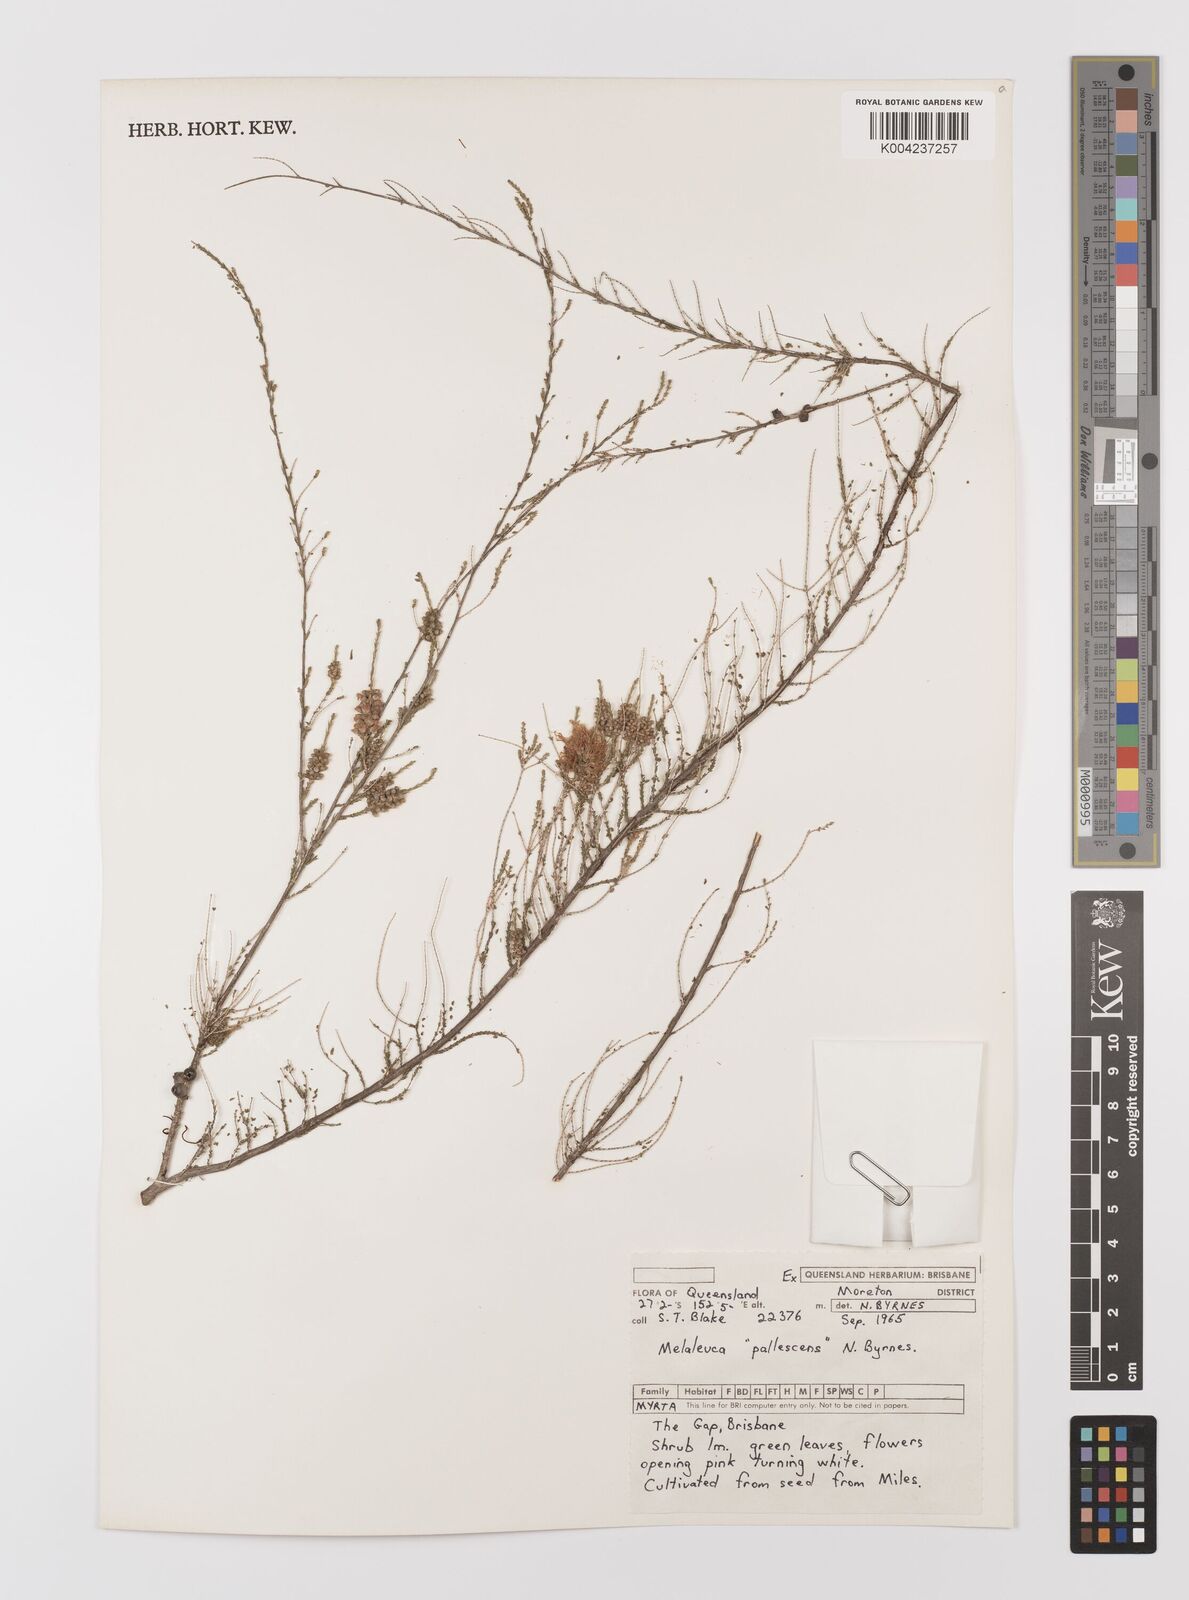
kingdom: Plantae
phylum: Tracheophyta
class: Magnoliopsida
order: Myrtales
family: Myrtaceae
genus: Melaleuca
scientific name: Melaleuca pallescens
